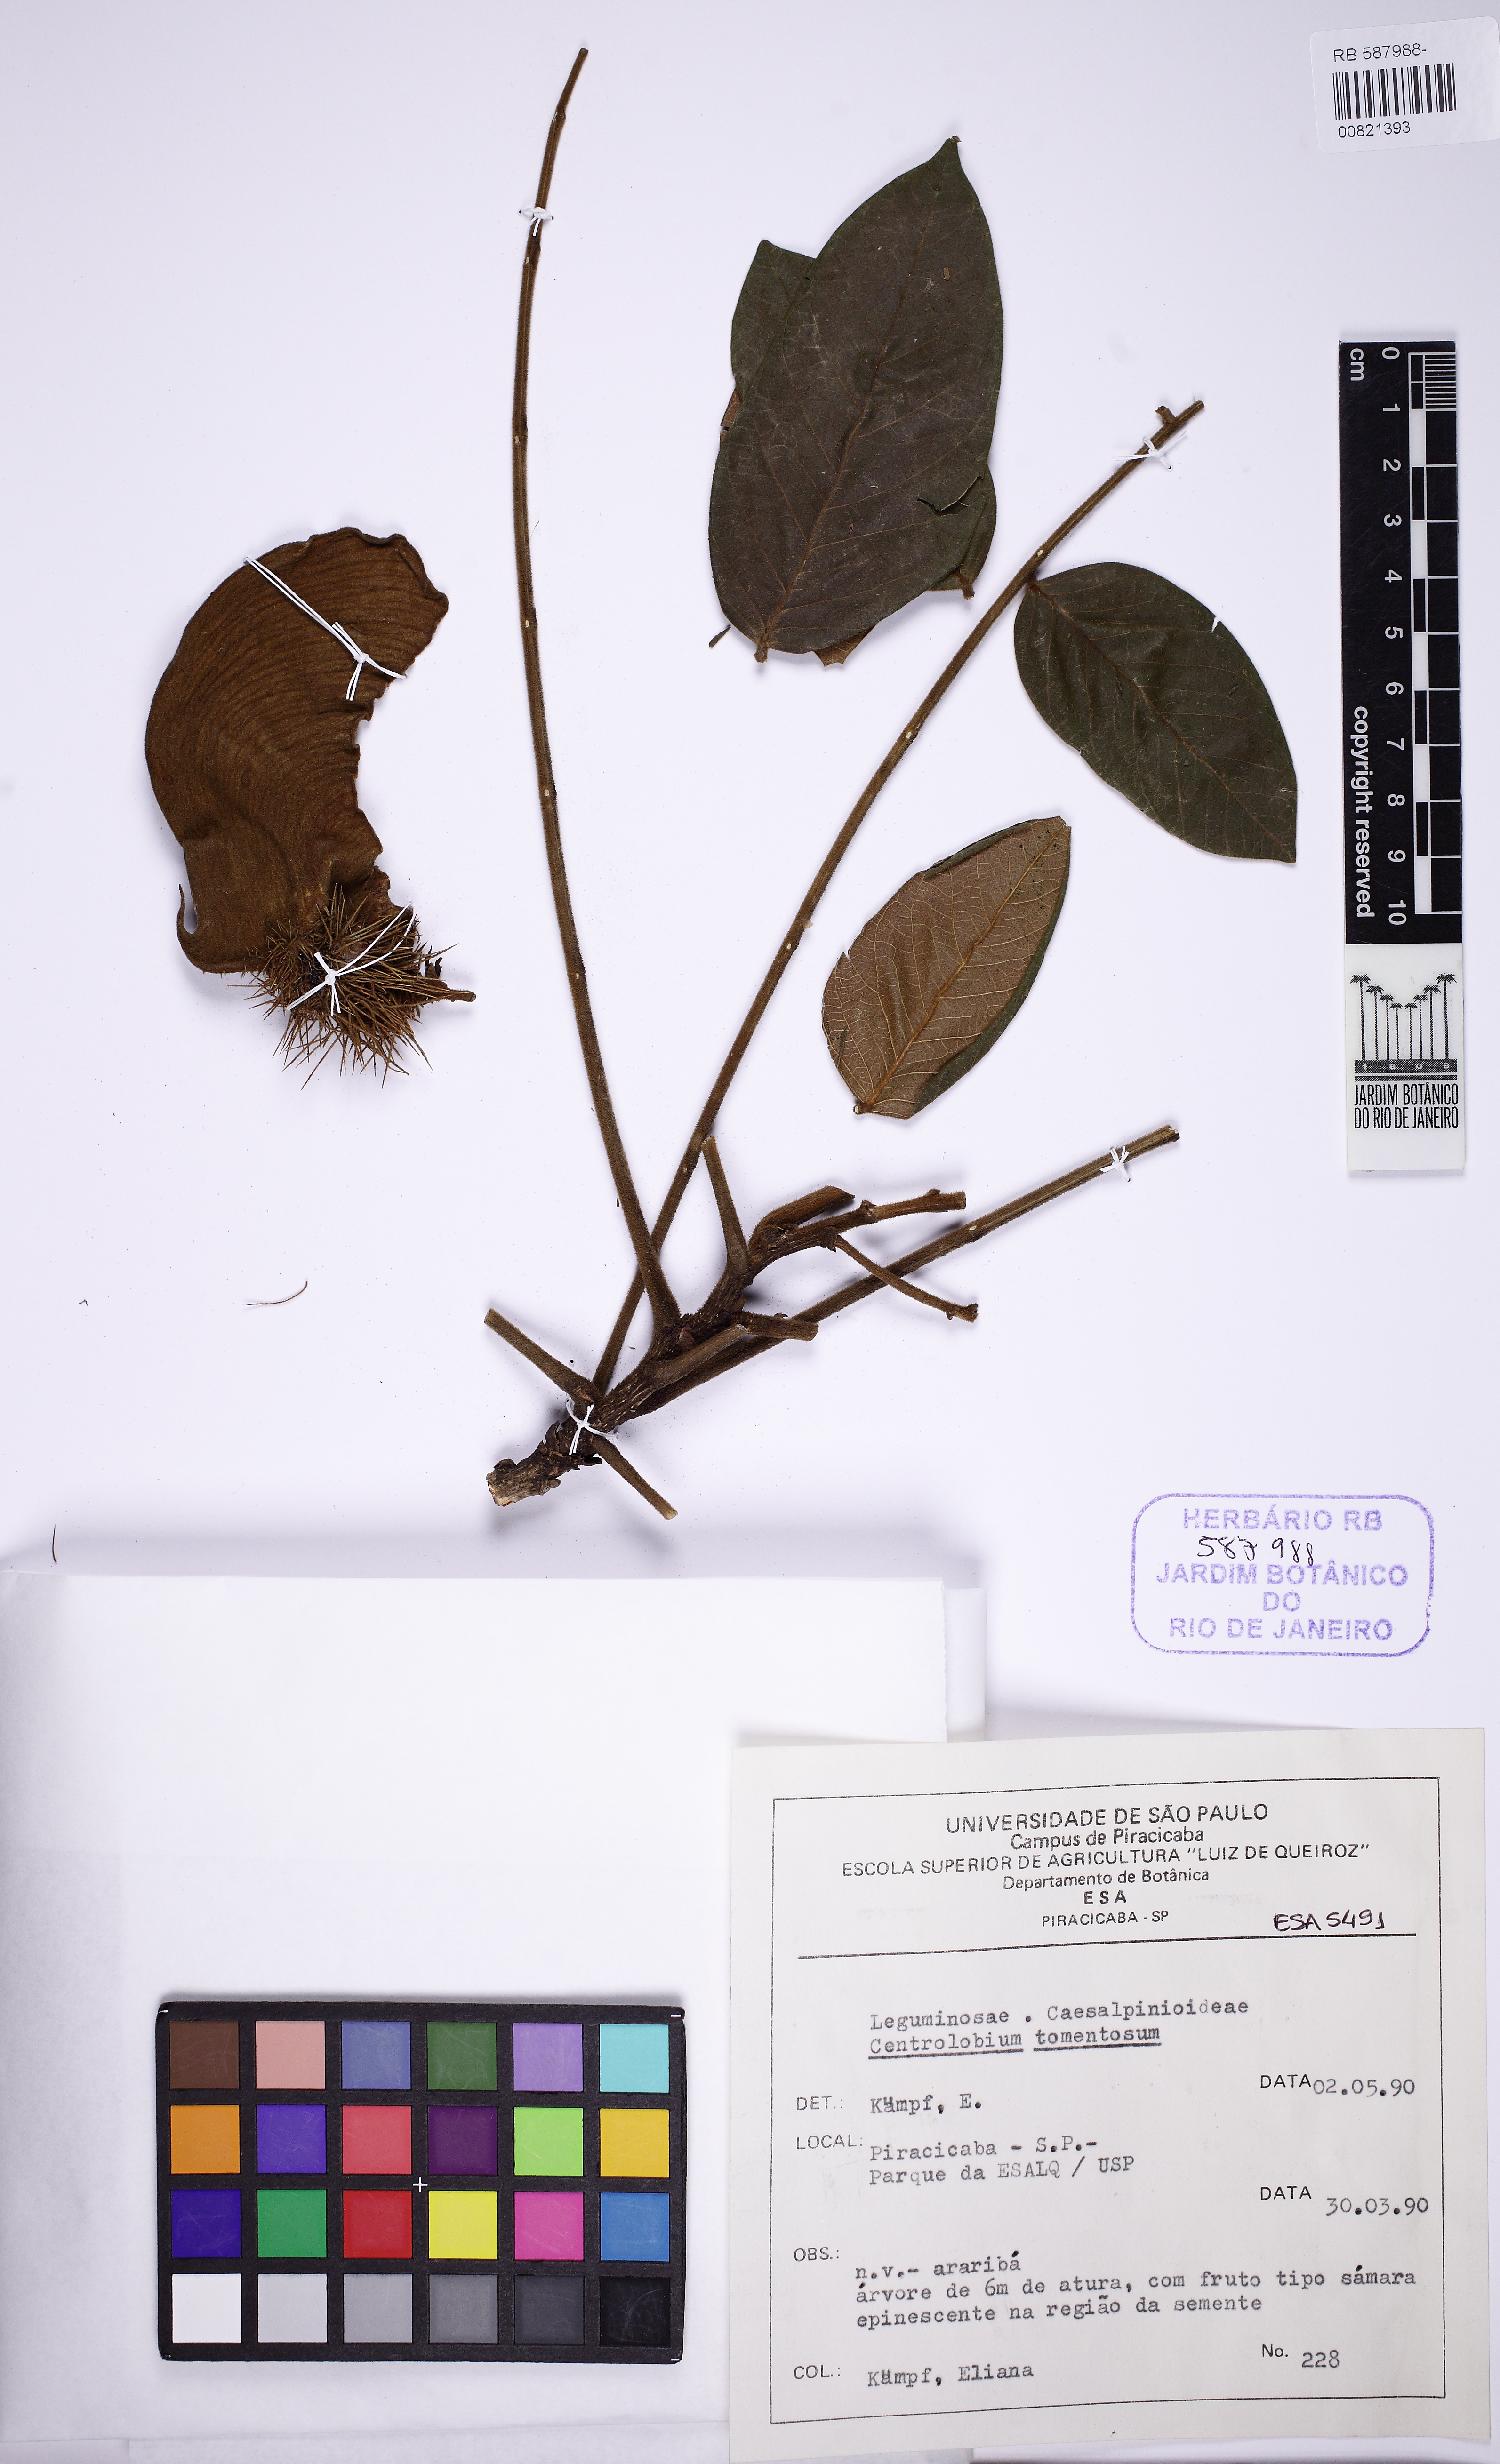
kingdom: Plantae
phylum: Tracheophyta
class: Magnoliopsida
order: Fabales
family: Fabaceae
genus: Centrolobium
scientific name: Centrolobium tomentosum
